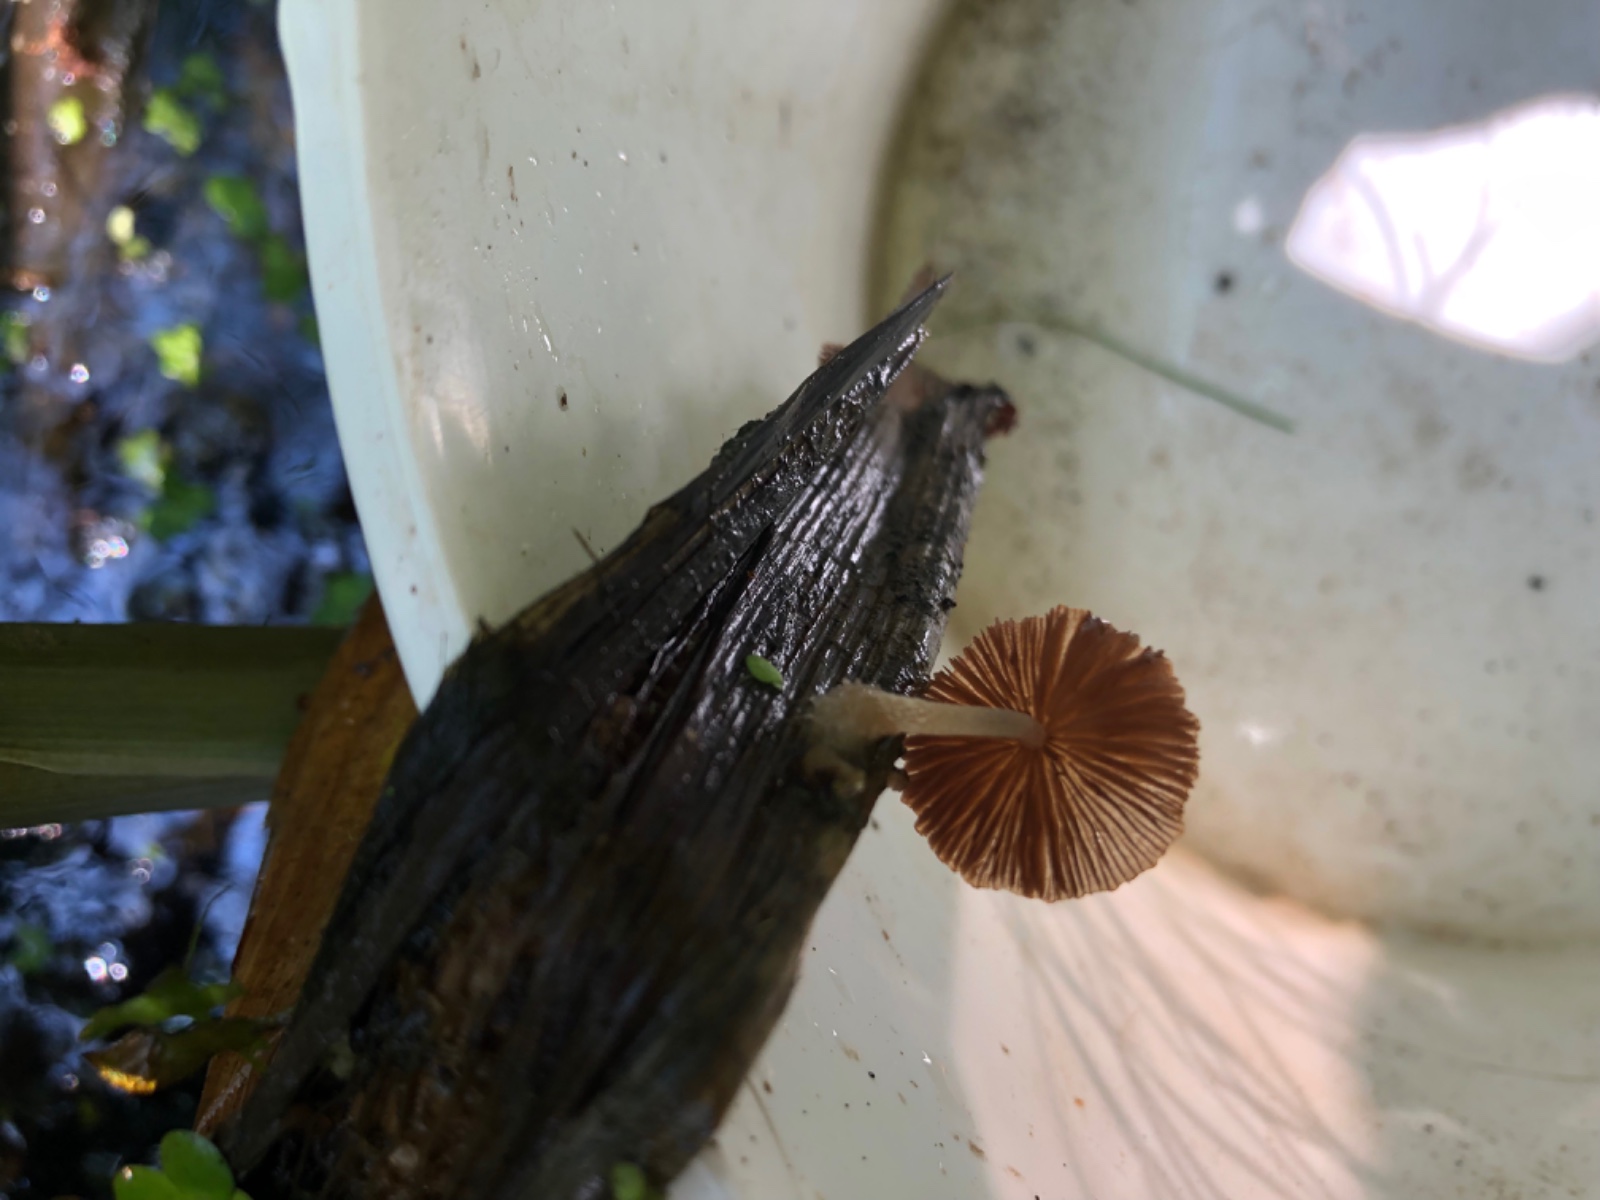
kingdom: Fungi
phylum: Basidiomycota
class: Agaricomycetes
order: Agaricales
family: Psathyrellaceae
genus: Candolleomyces
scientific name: Candolleomyces typhae
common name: dunhammer-mørkhat
